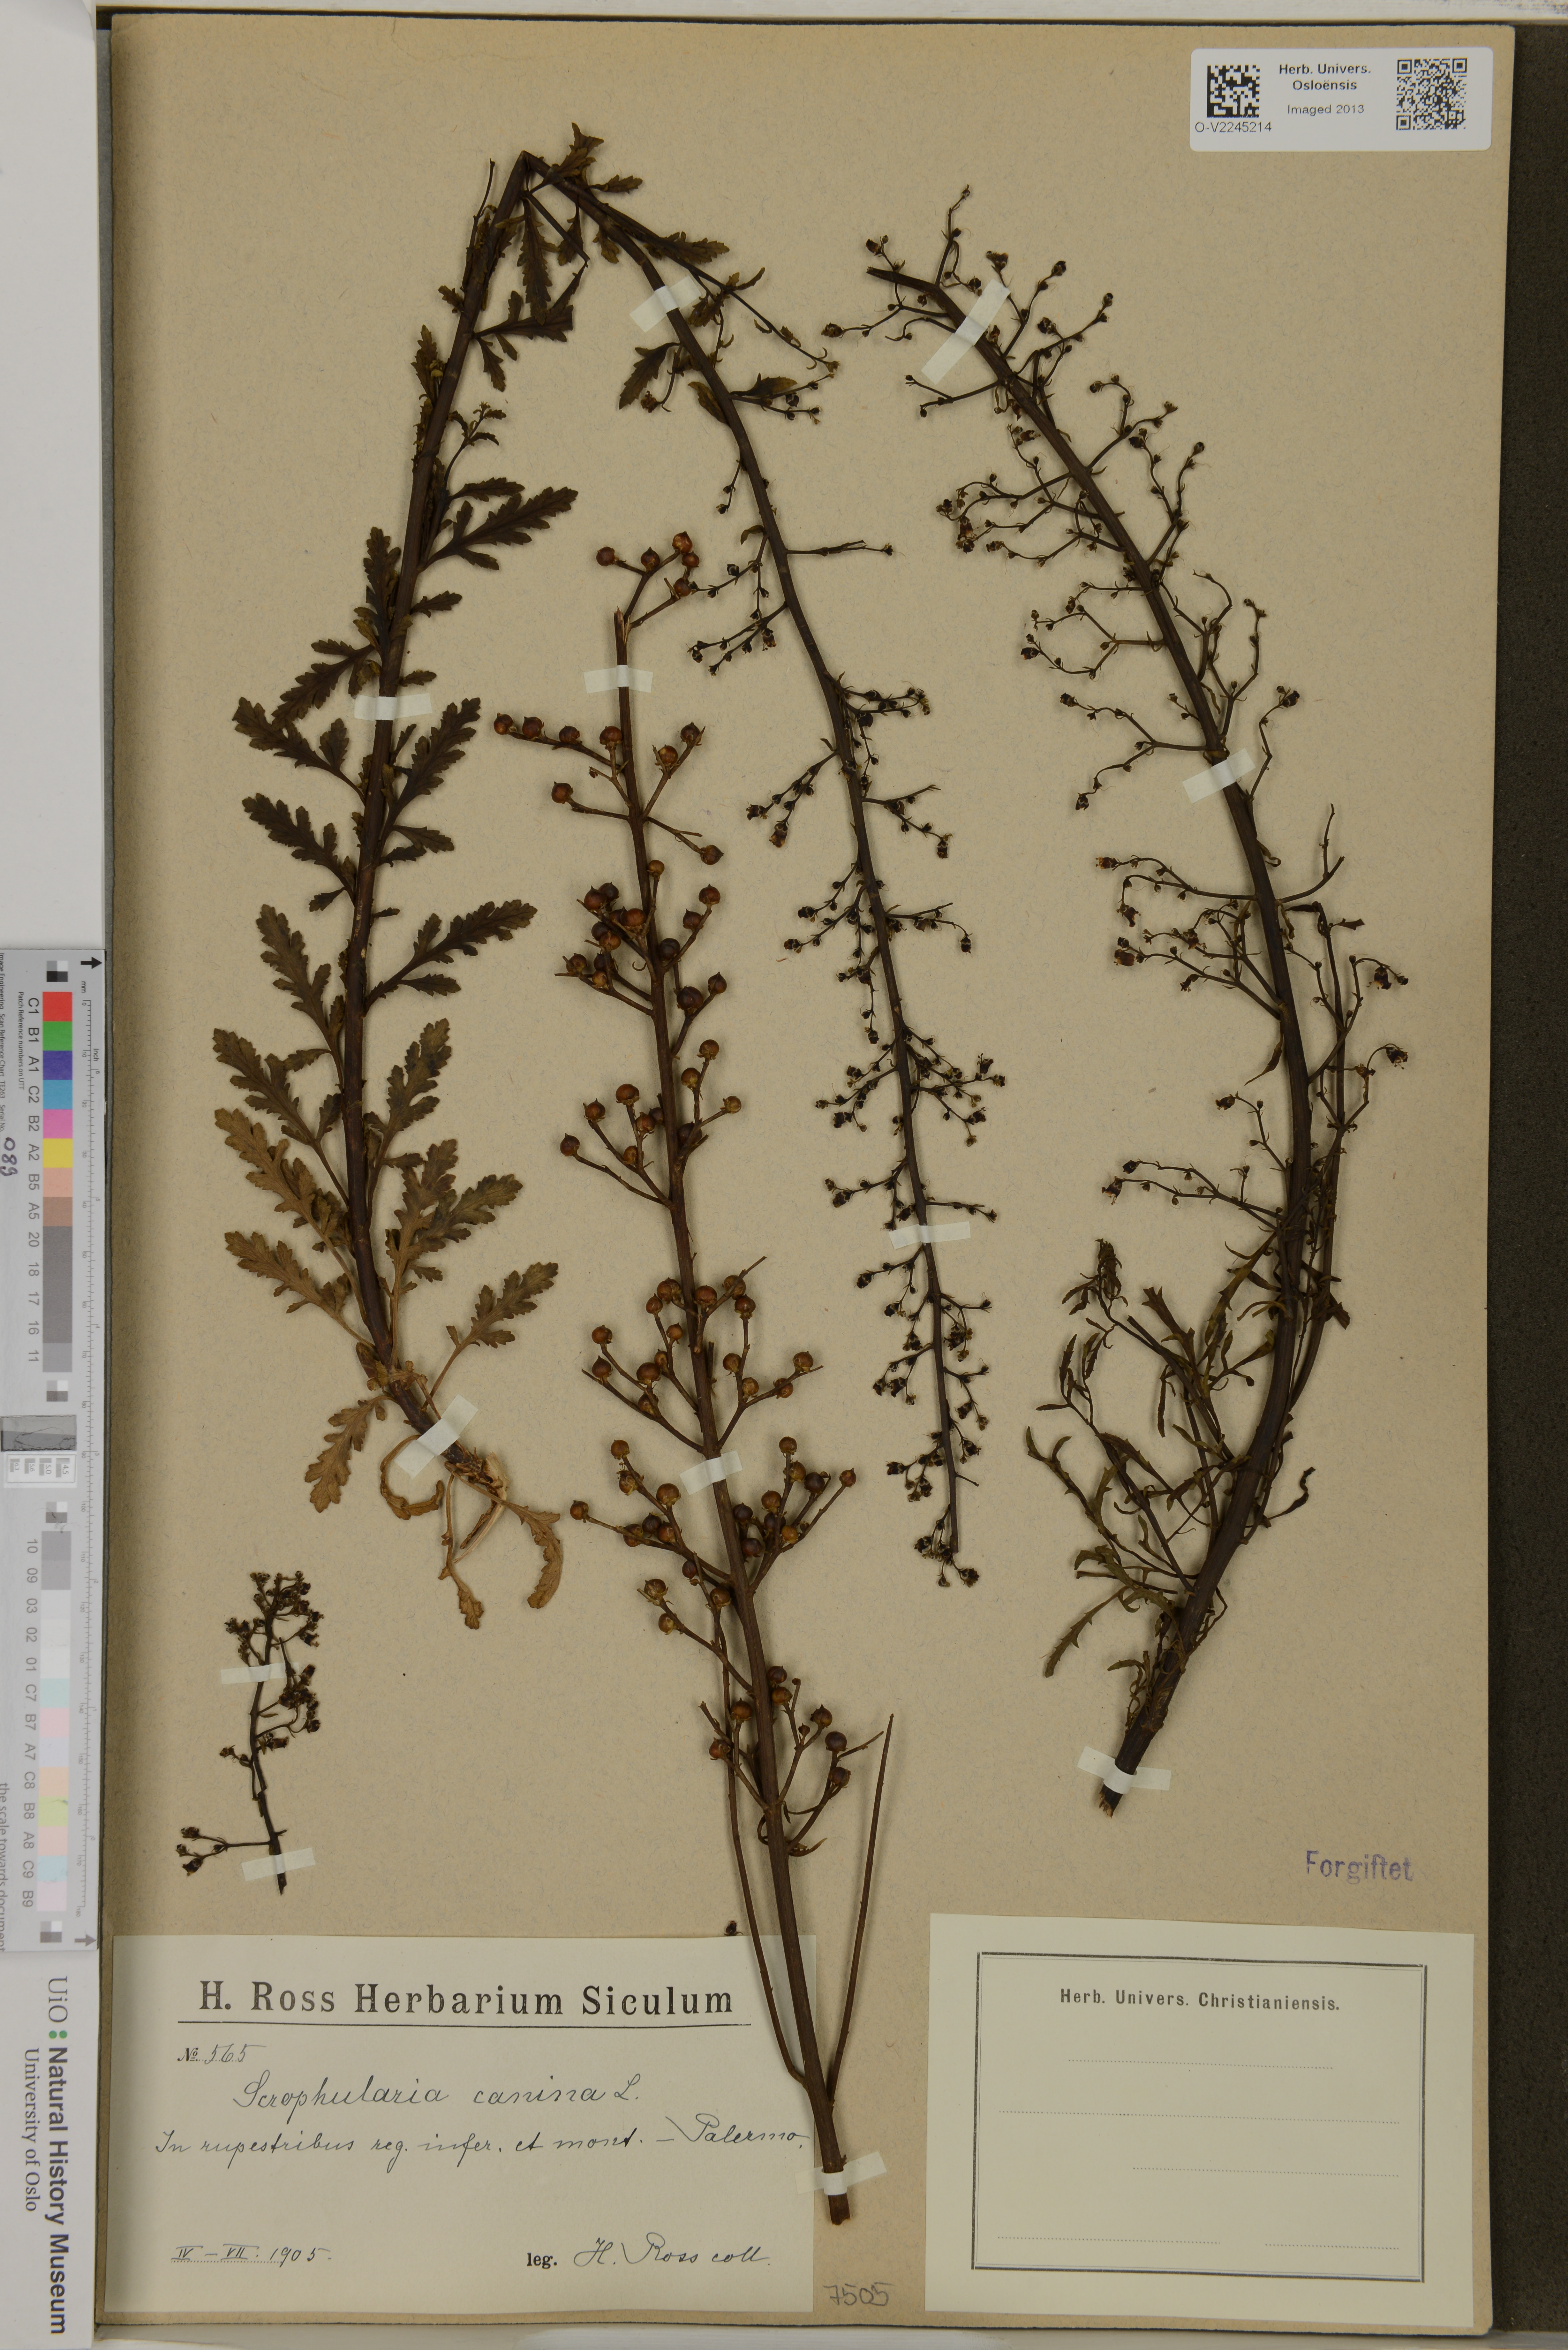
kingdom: Plantae
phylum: Tracheophyta
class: Magnoliopsida
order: Lamiales
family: Scrophulariaceae
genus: Scrophularia
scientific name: Scrophularia canina
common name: French figwort
